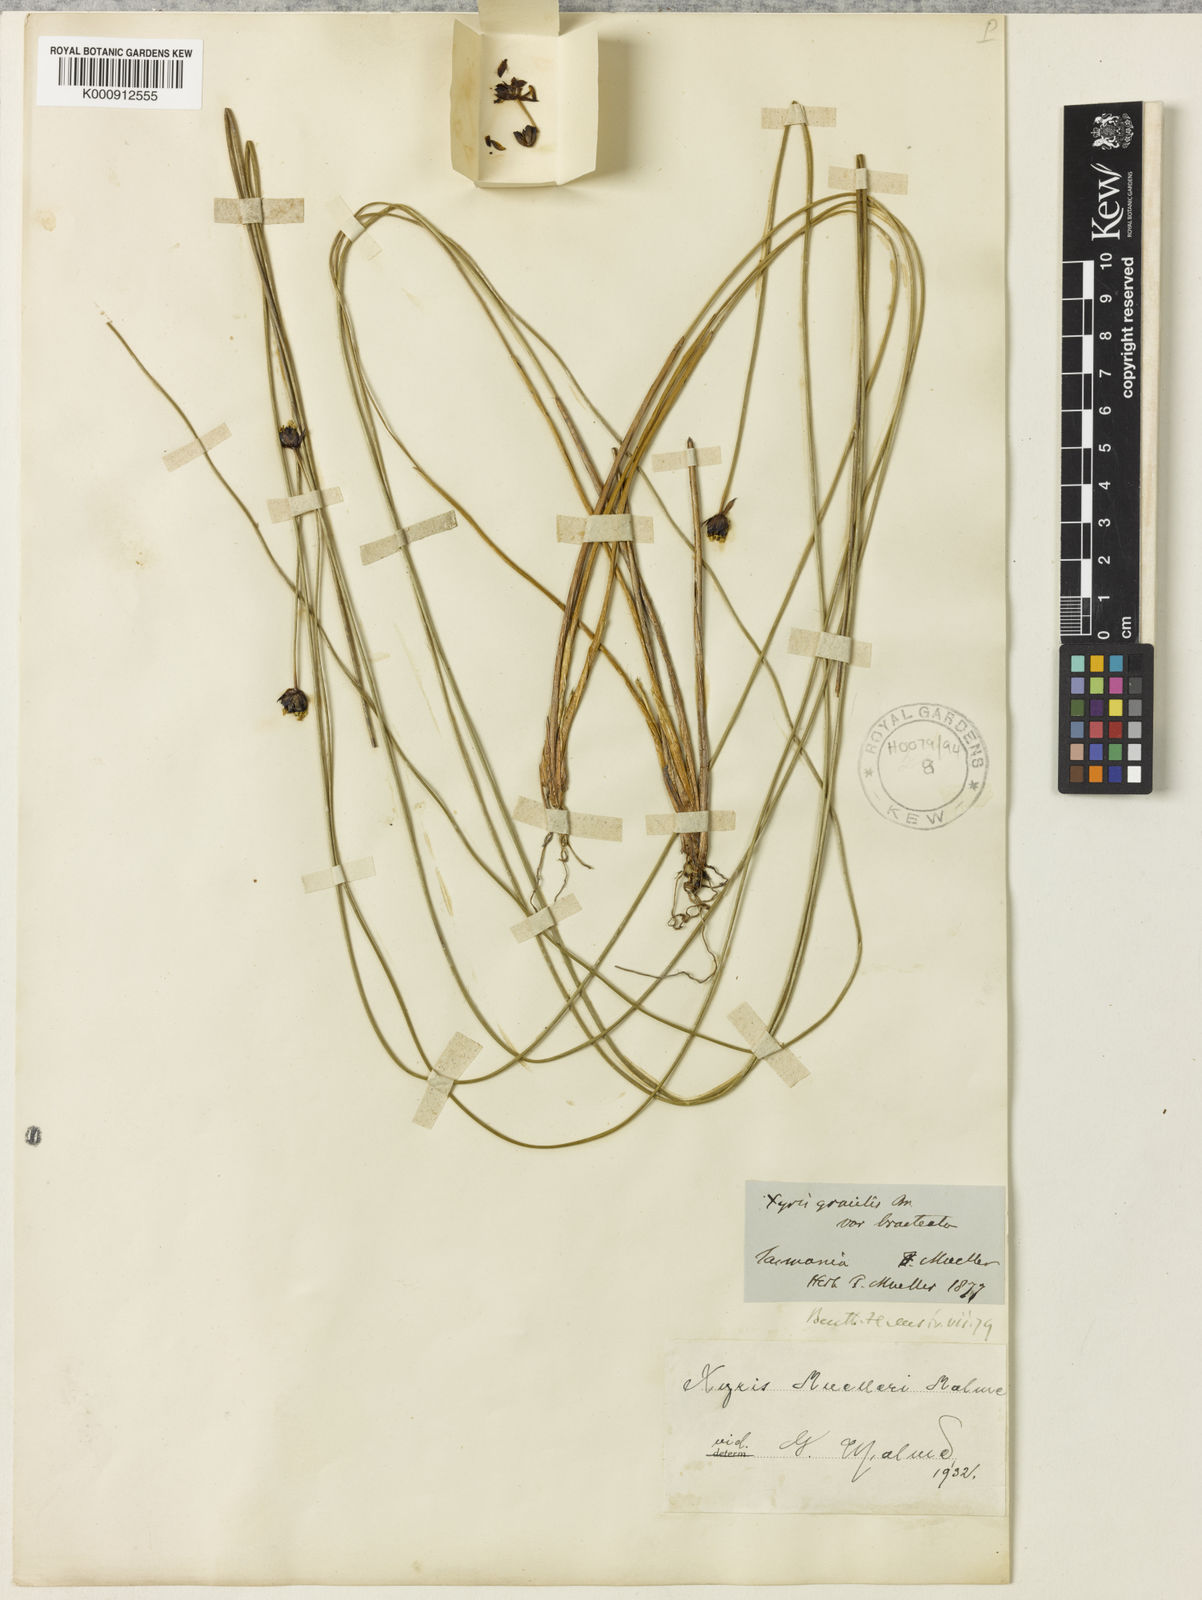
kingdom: Plantae
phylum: Tracheophyta
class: Liliopsida
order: Poales
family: Xyridaceae
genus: Xyris
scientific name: Xyris muelleri
